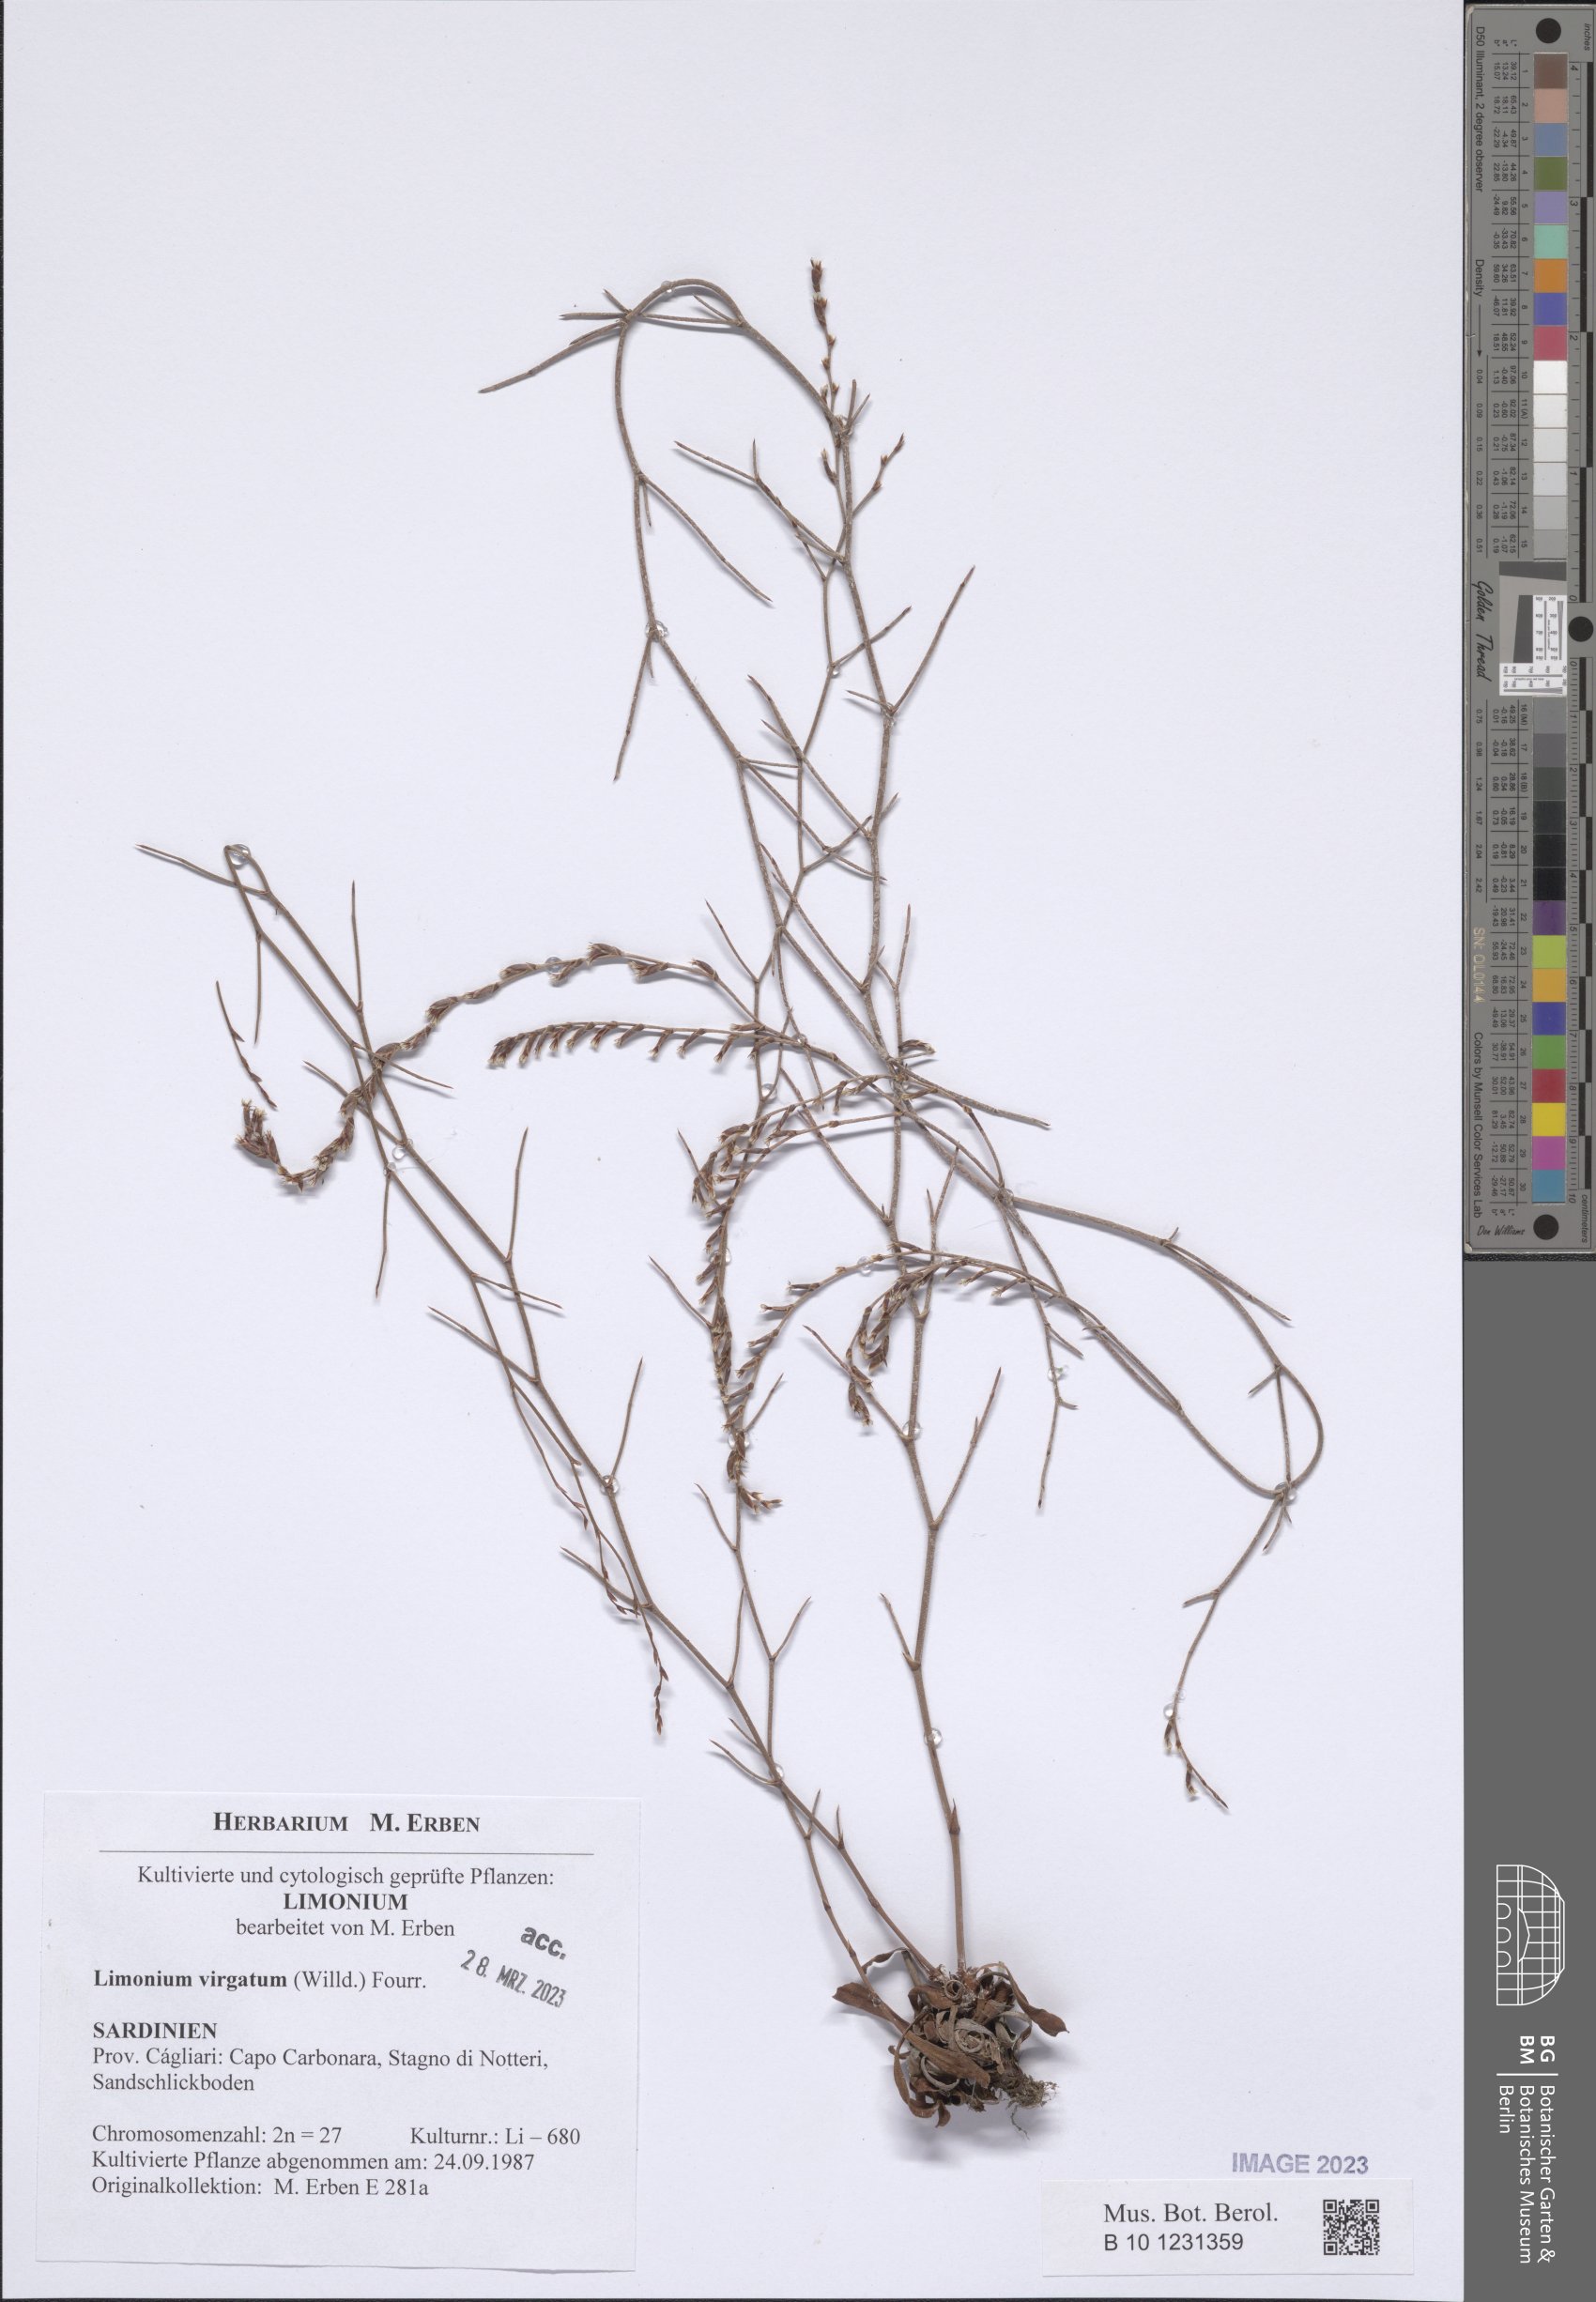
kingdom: Plantae
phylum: Tracheophyta
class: Magnoliopsida
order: Caryophyllales
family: Plumbaginaceae
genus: Limonium
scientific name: Limonium virgatum
